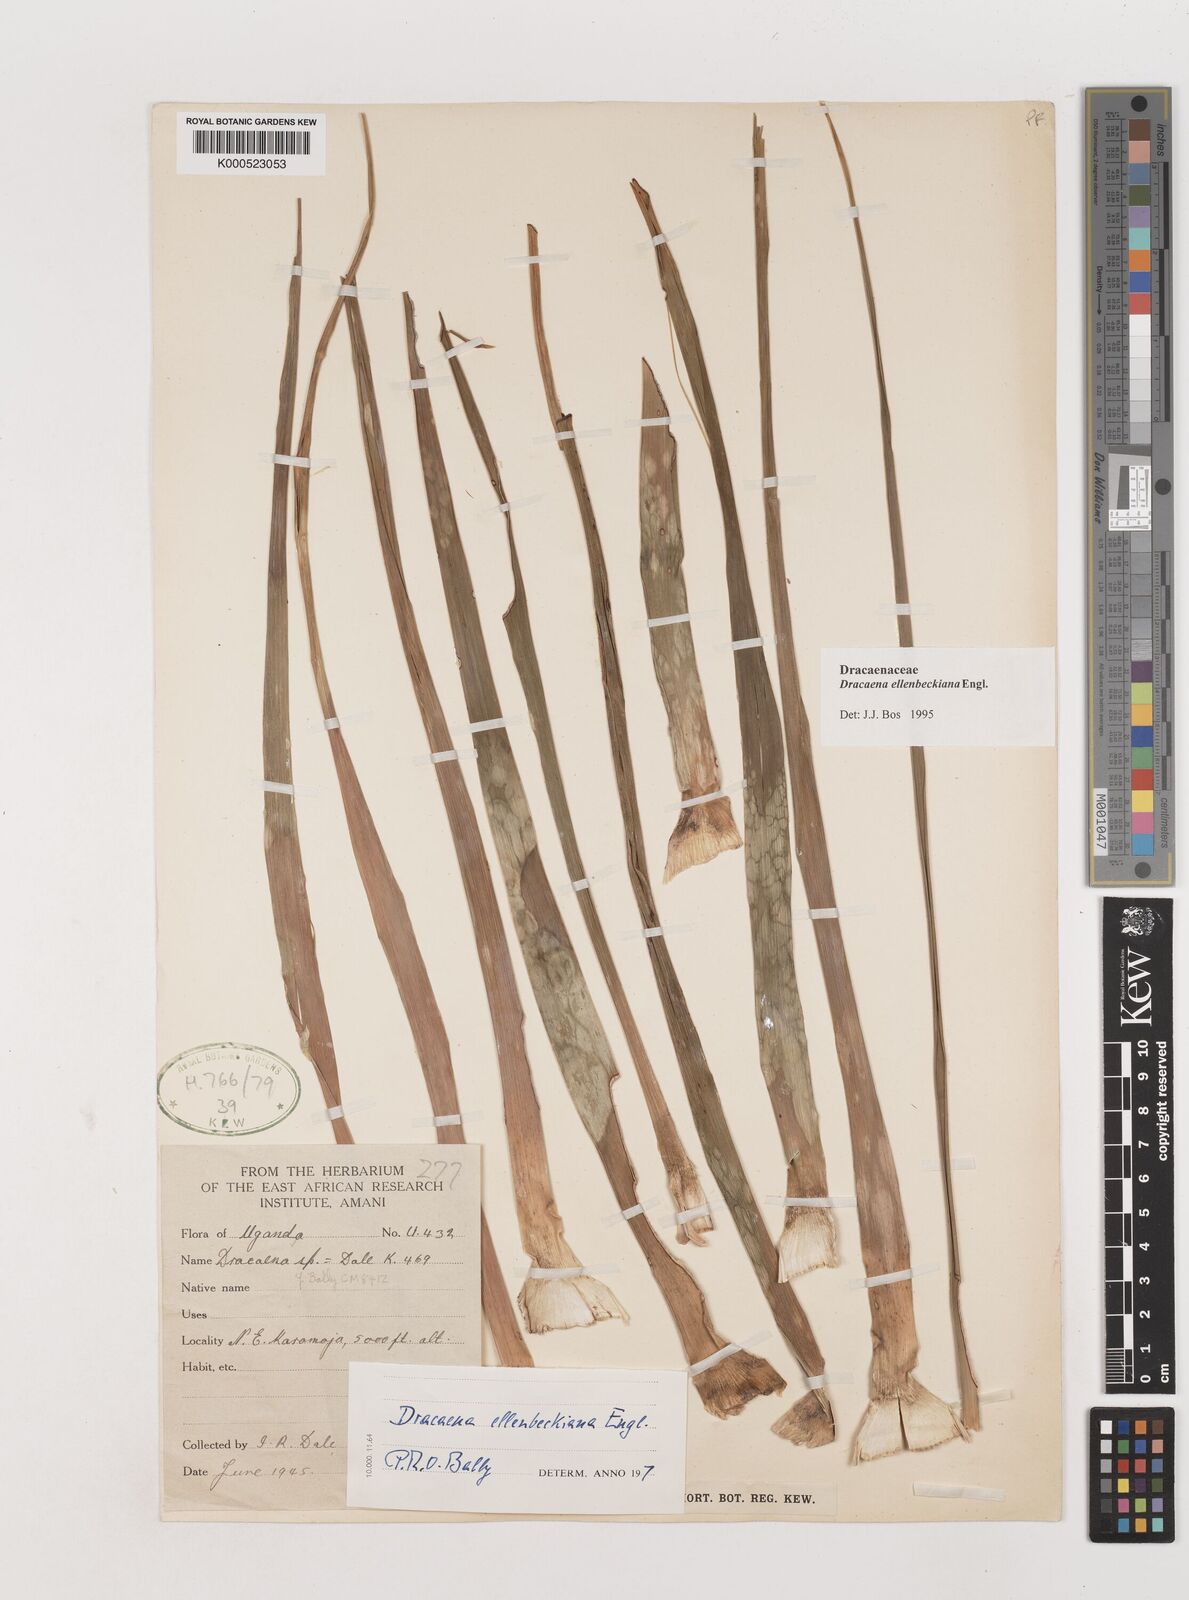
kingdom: Plantae
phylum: Tracheophyta
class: Liliopsida
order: Asparagales
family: Asparagaceae
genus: Dracaena
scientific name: Dracaena ellenbeckiana
